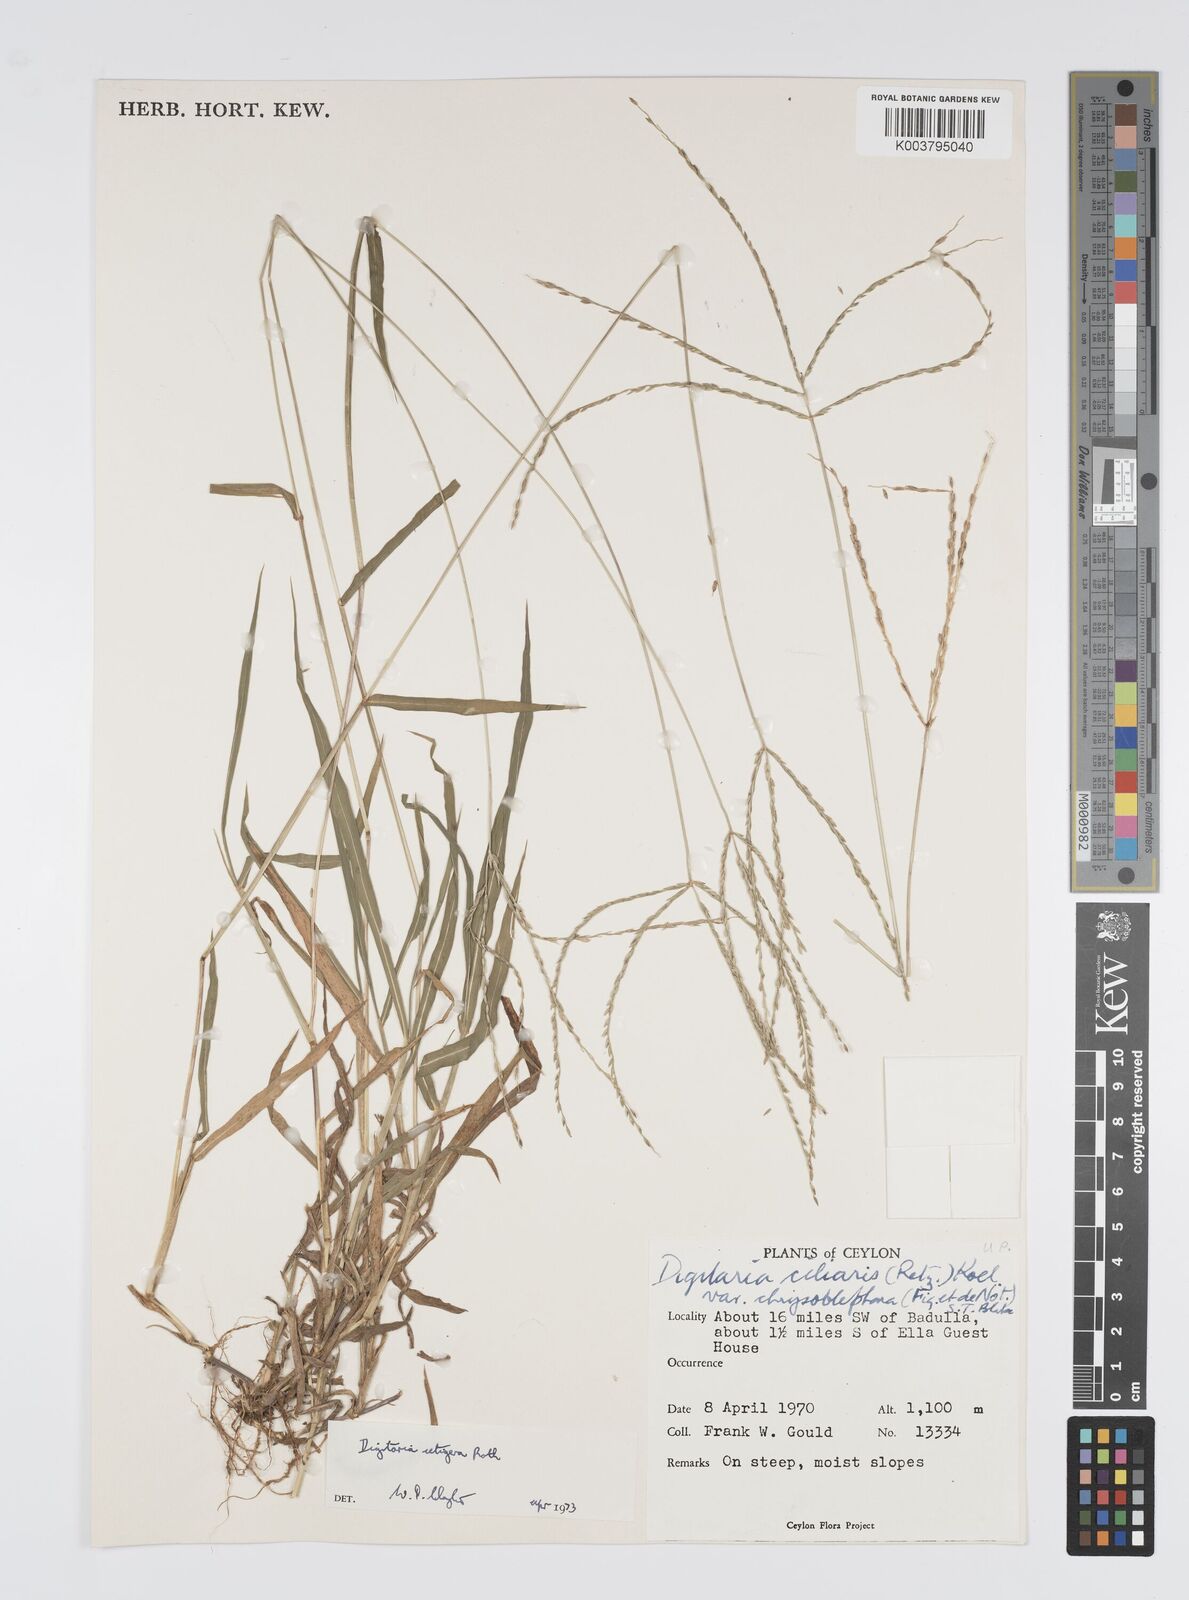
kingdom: Plantae
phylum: Tracheophyta
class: Liliopsida
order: Poales
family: Poaceae
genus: Digitaria
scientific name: Digitaria setigera
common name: East indian crabgrass
